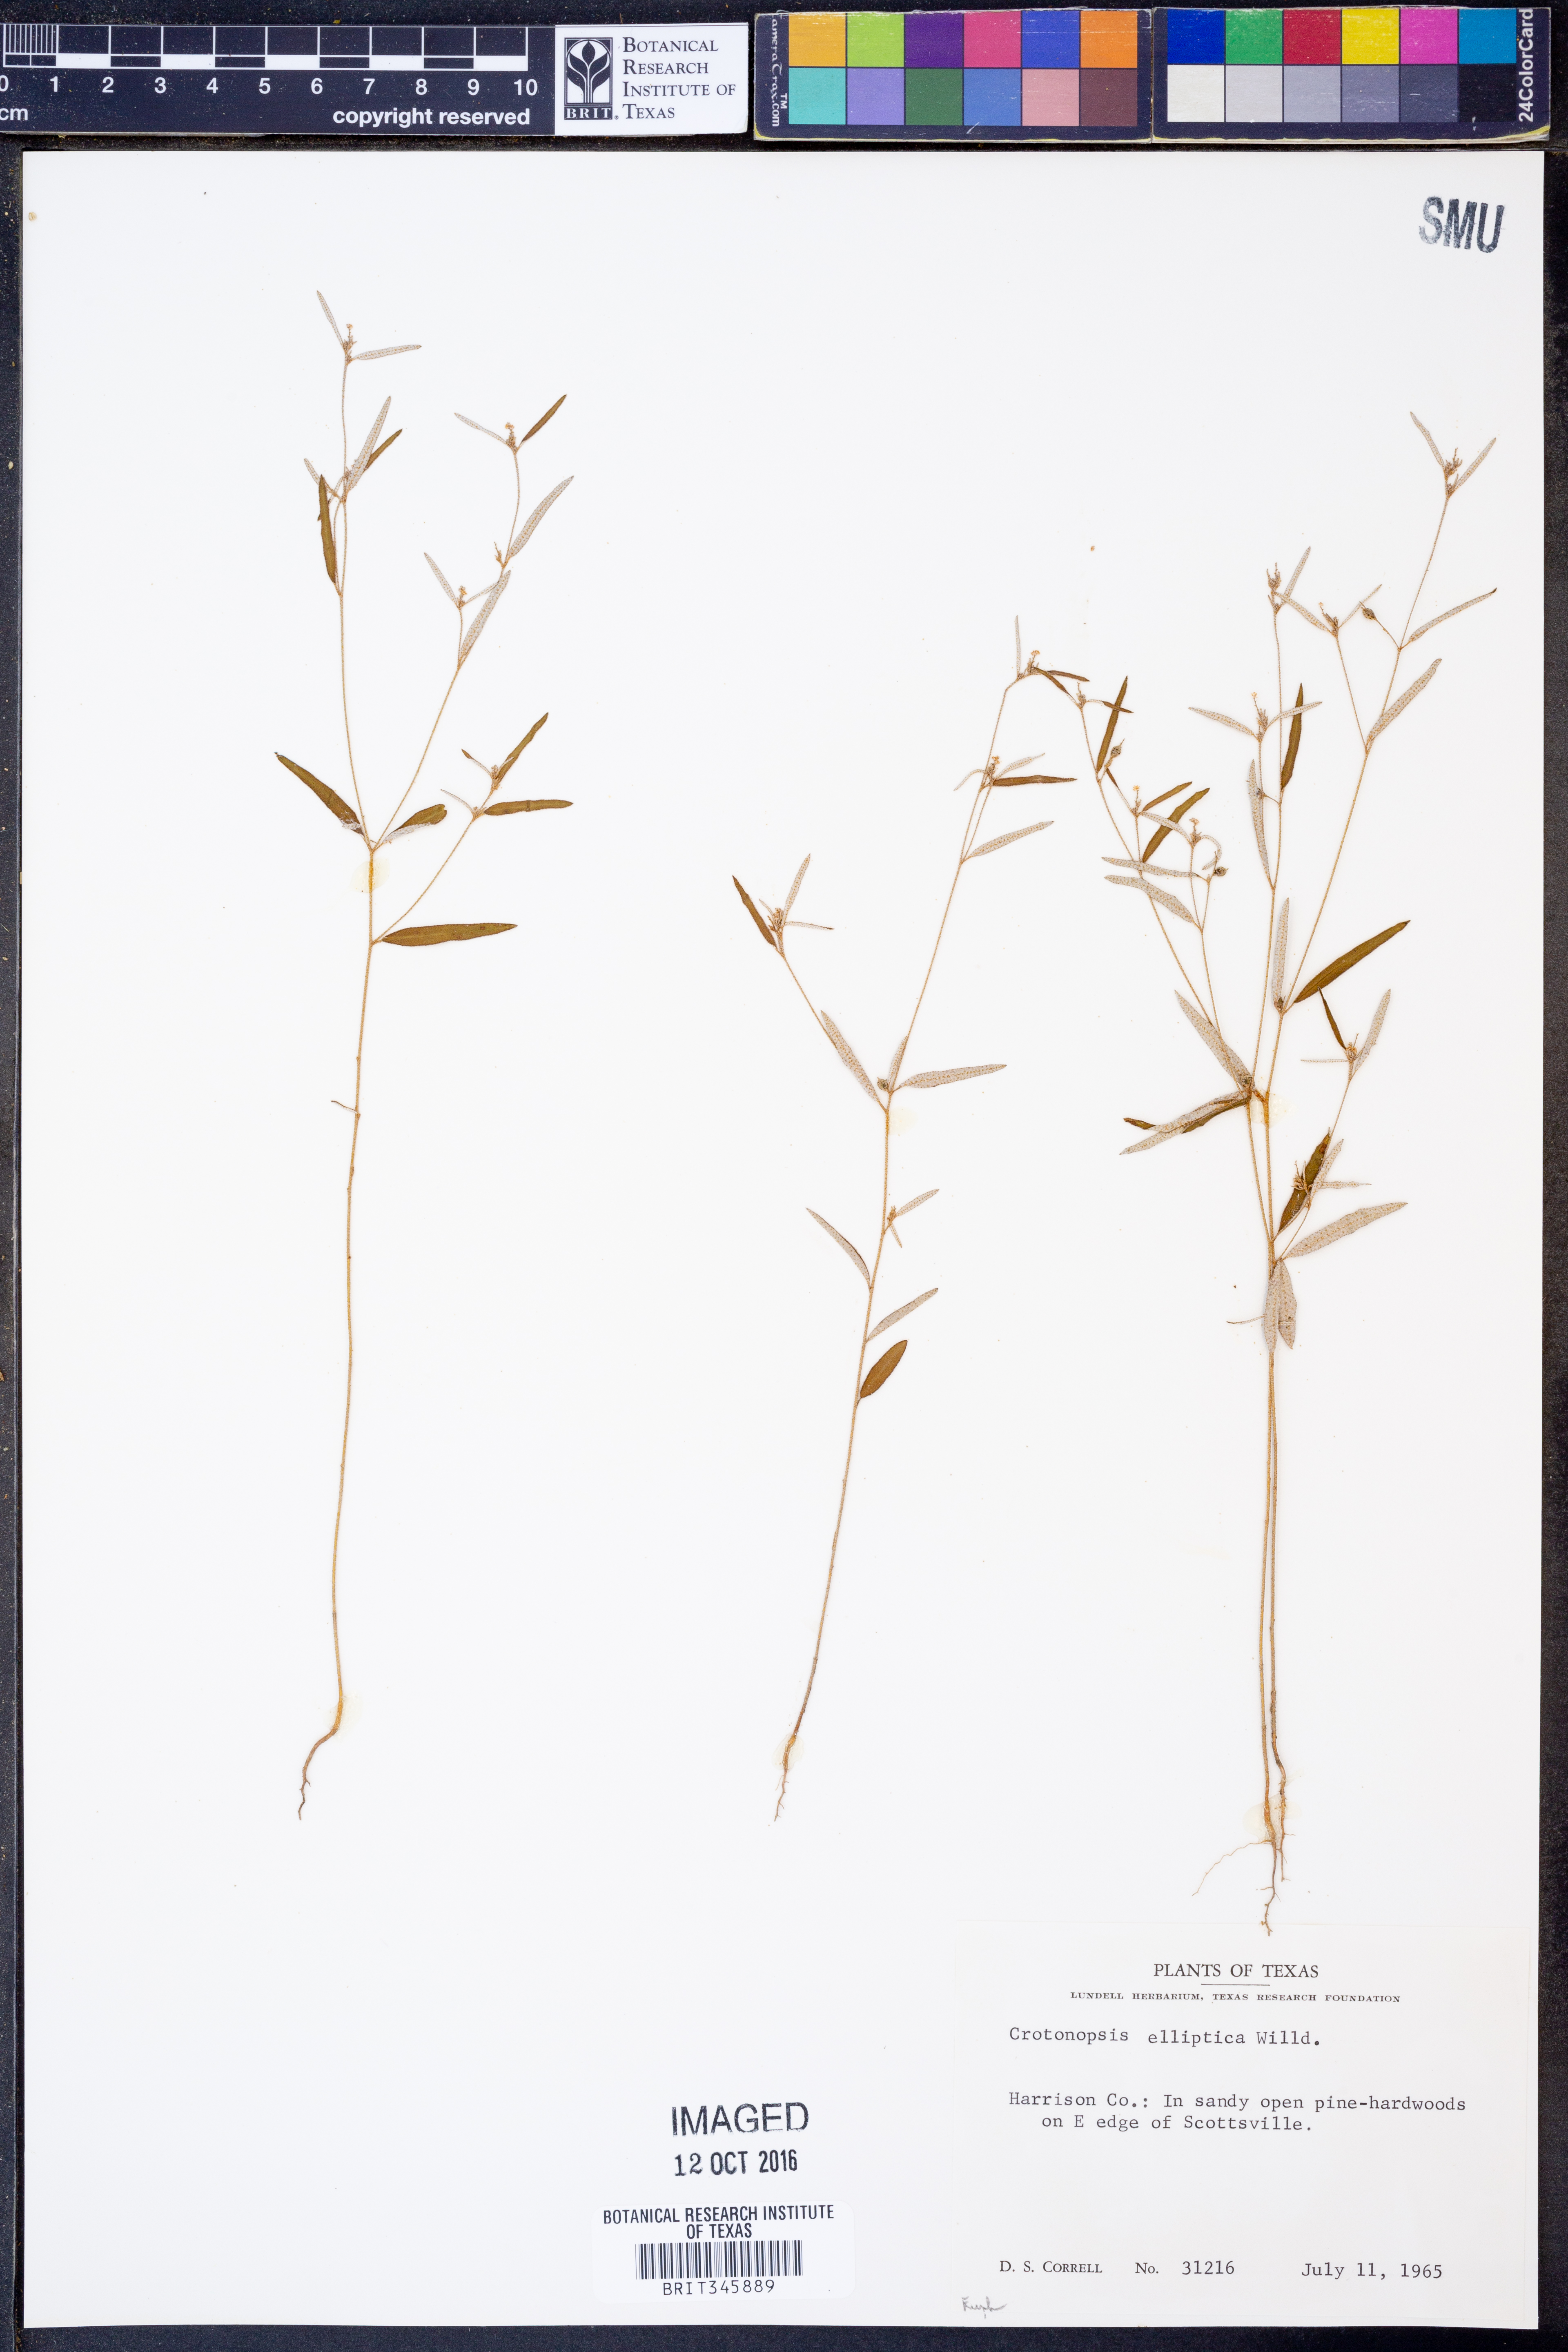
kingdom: Plantae
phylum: Tracheophyta
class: Magnoliopsida
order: Malpighiales
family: Euphorbiaceae
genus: Croton
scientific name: Croton michauxii
